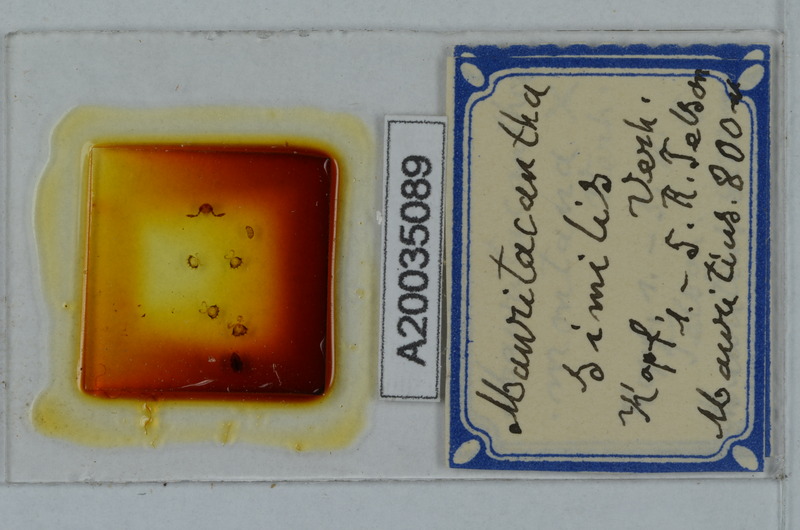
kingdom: Animalia
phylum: Arthropoda
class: Diplopoda
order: Polydesmida
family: Trichopolydesmidae
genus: Mauritacantha
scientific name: Mauritacantha similis
